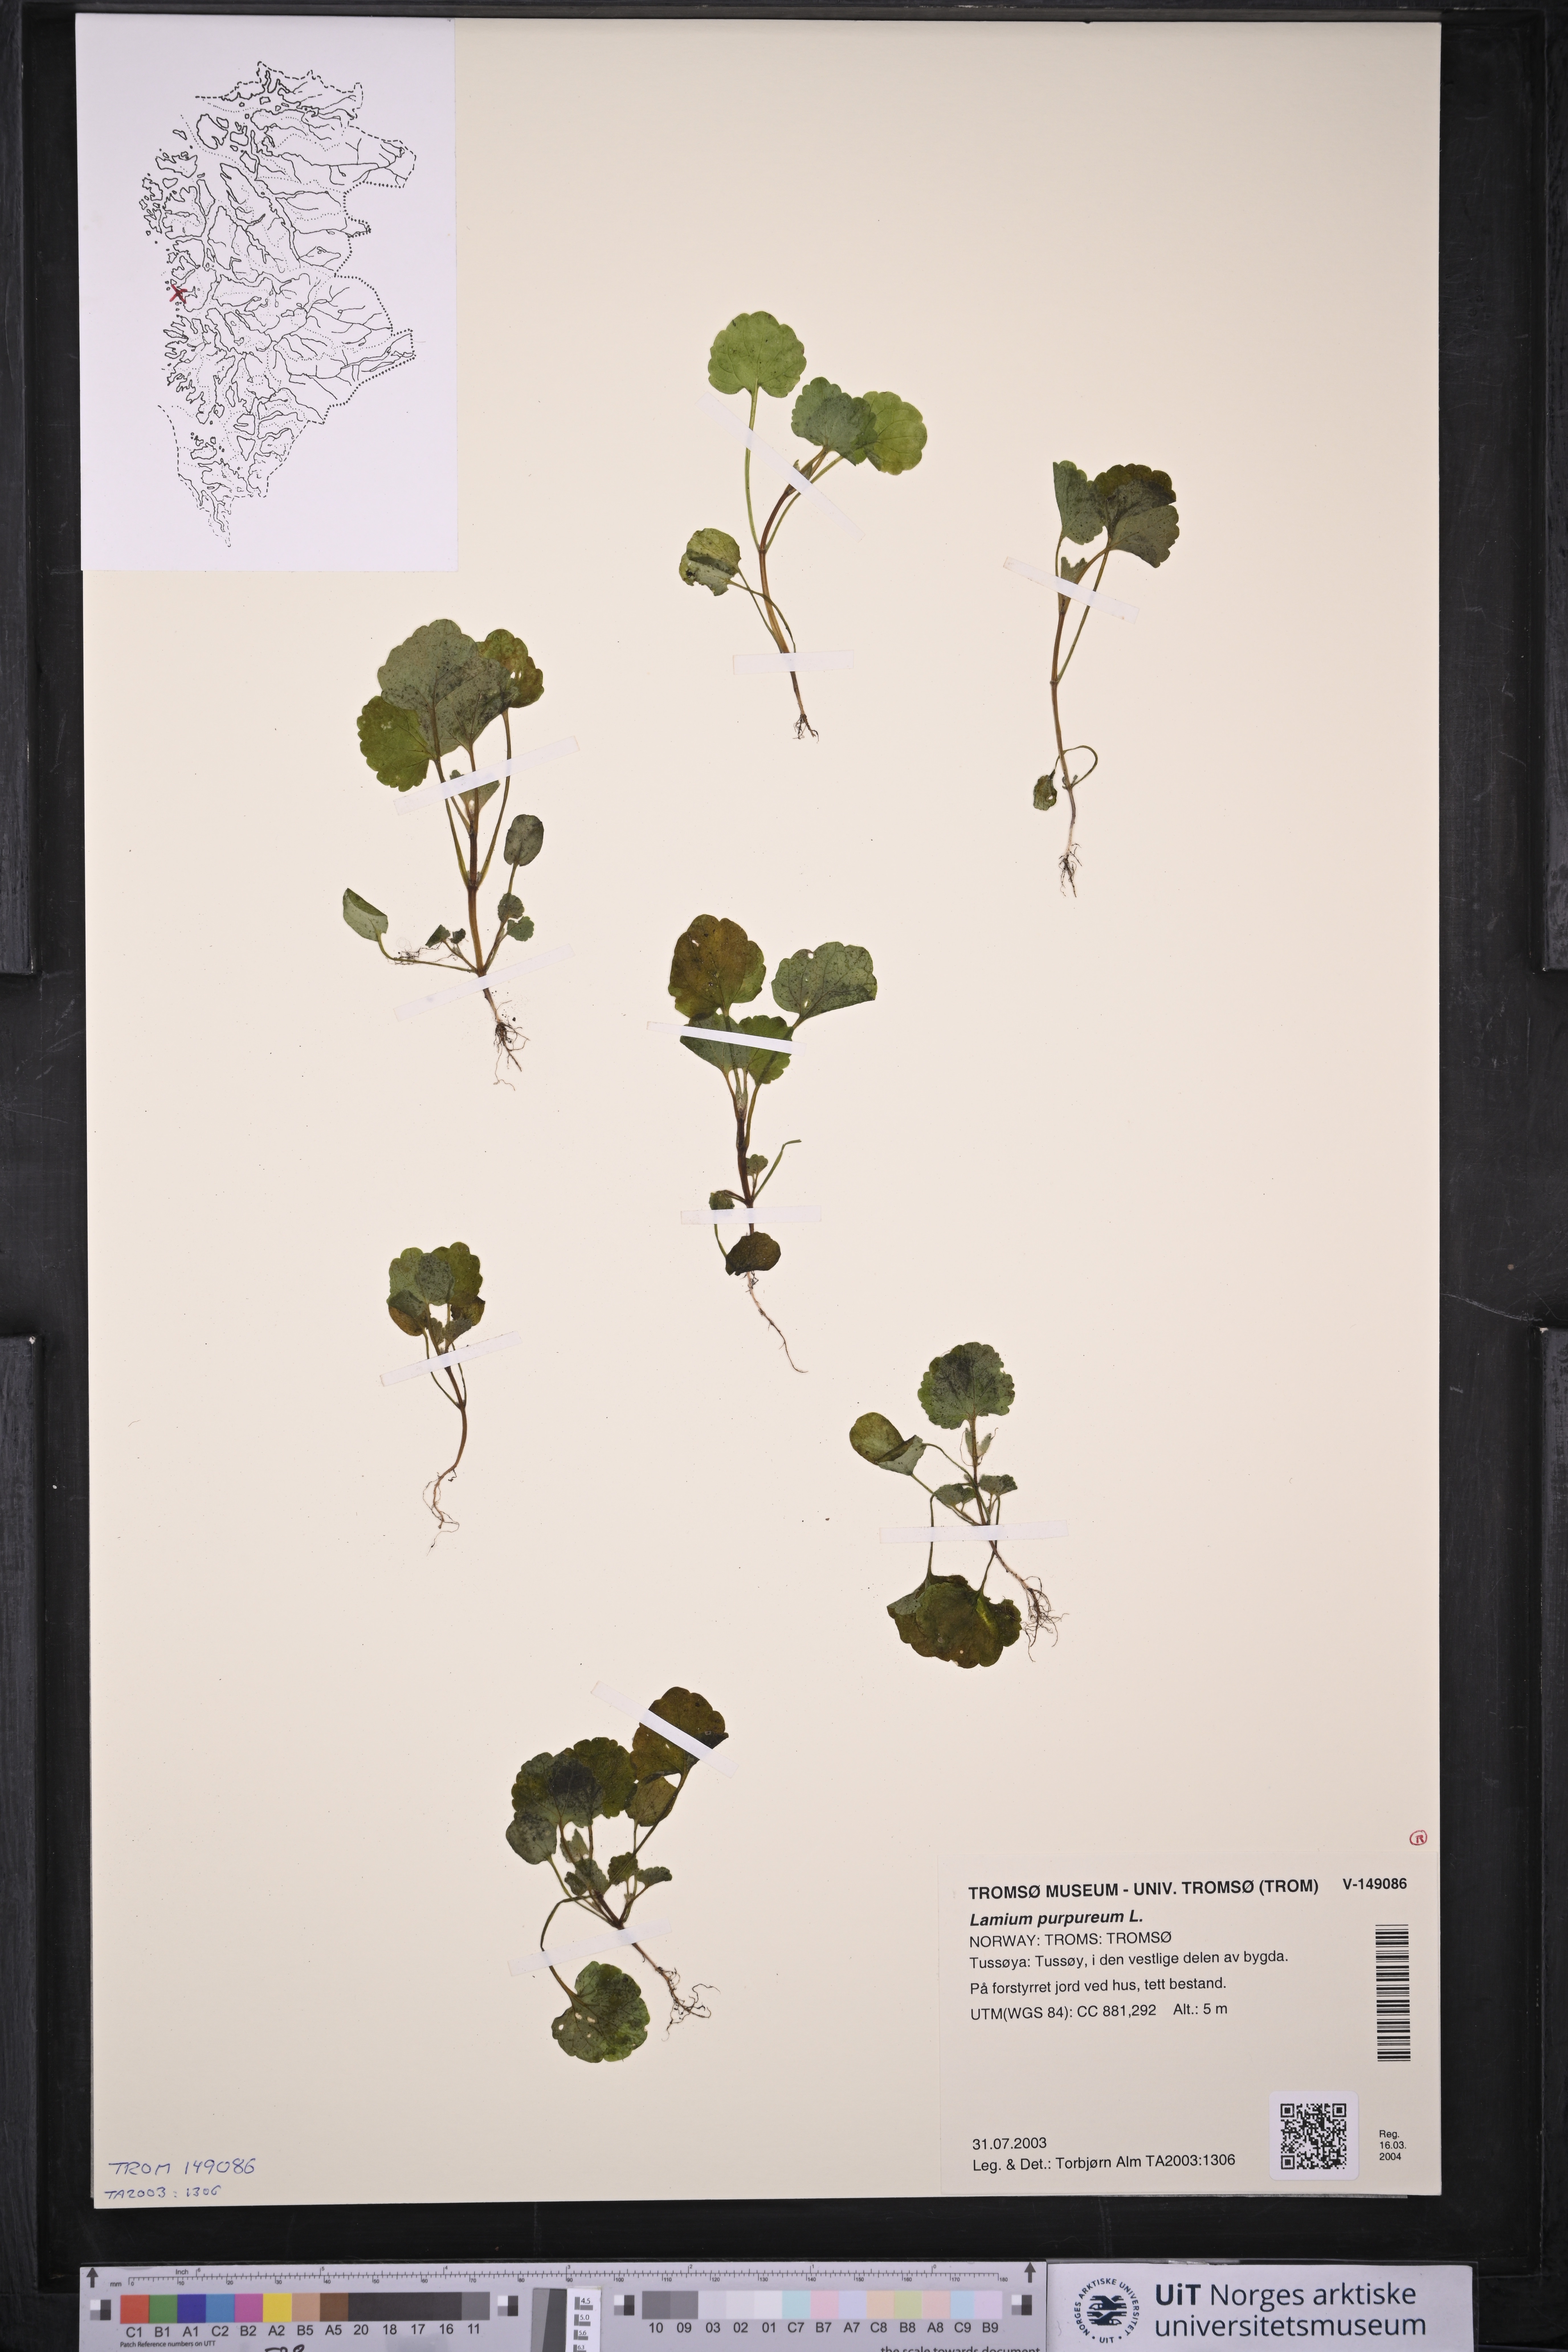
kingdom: Plantae
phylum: Tracheophyta
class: Magnoliopsida
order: Lamiales
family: Lamiaceae
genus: Lamium
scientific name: Lamium purpureum
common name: Red dead-nettle
